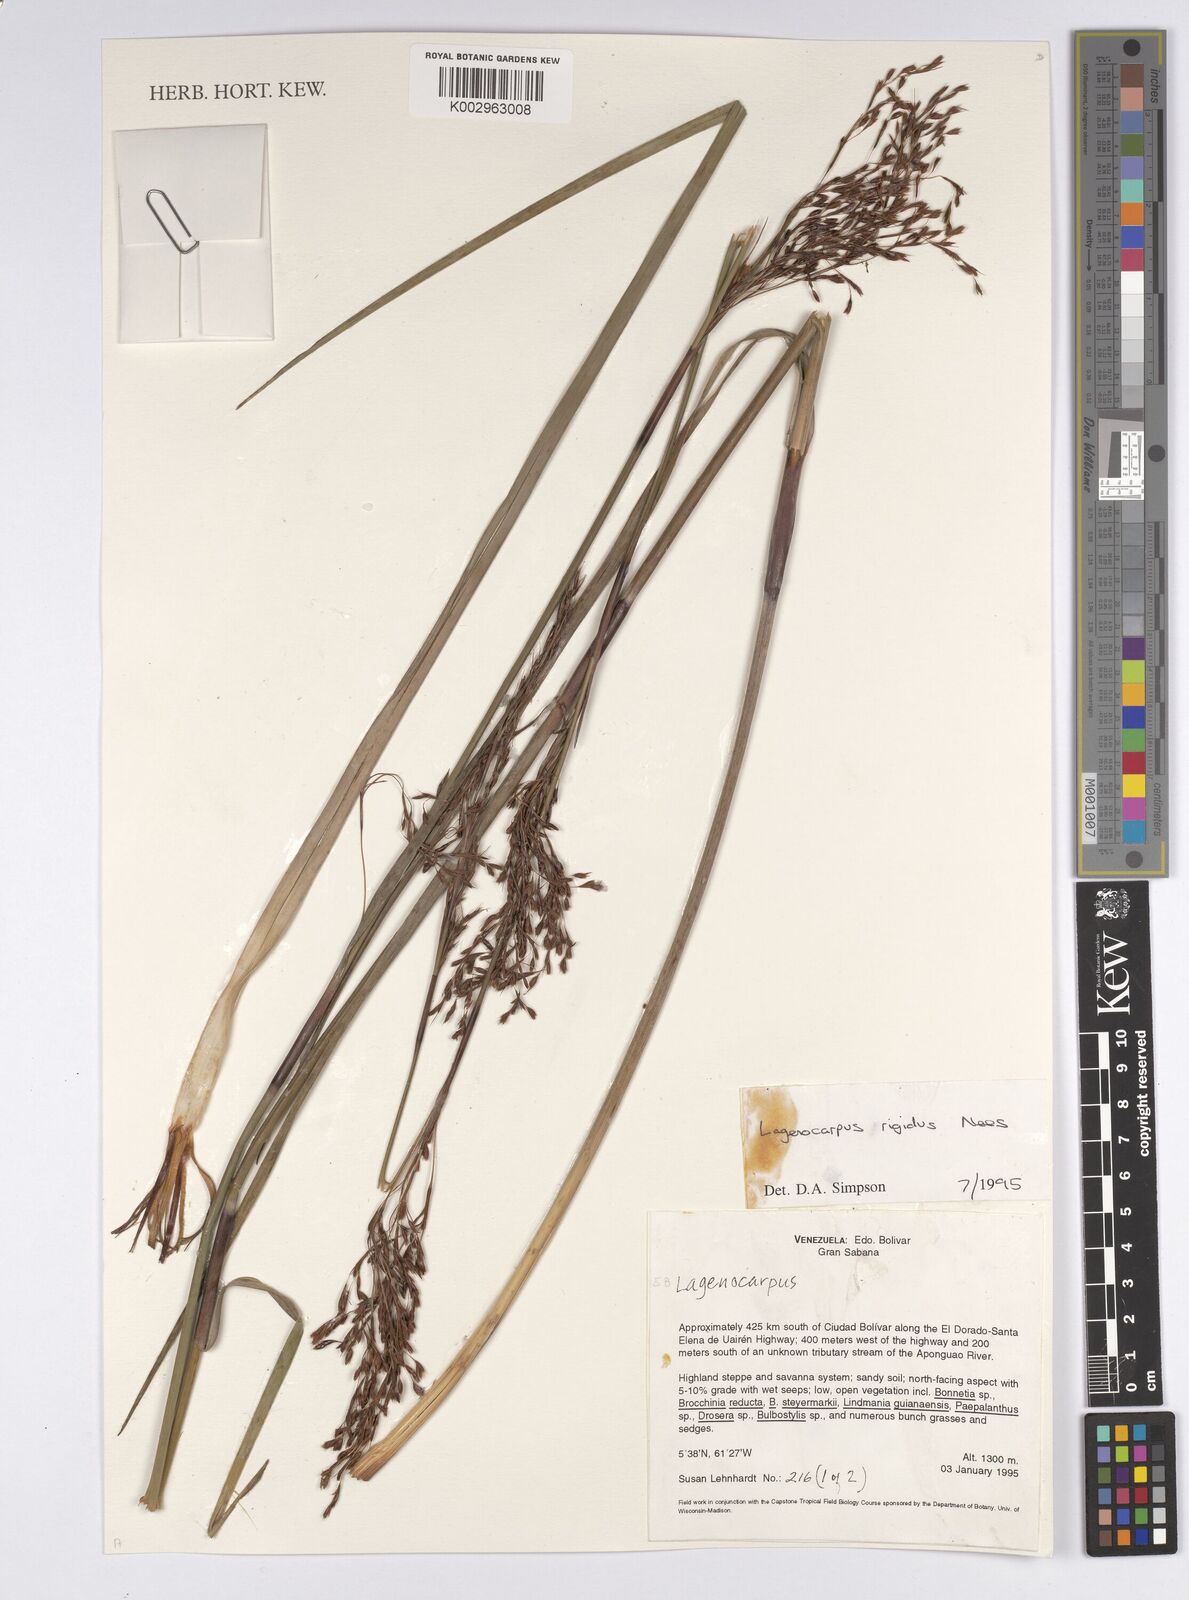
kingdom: Plantae
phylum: Tracheophyta
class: Liliopsida
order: Poales
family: Cyperaceae
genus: Lagenocarpus
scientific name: Lagenocarpus rigidus
